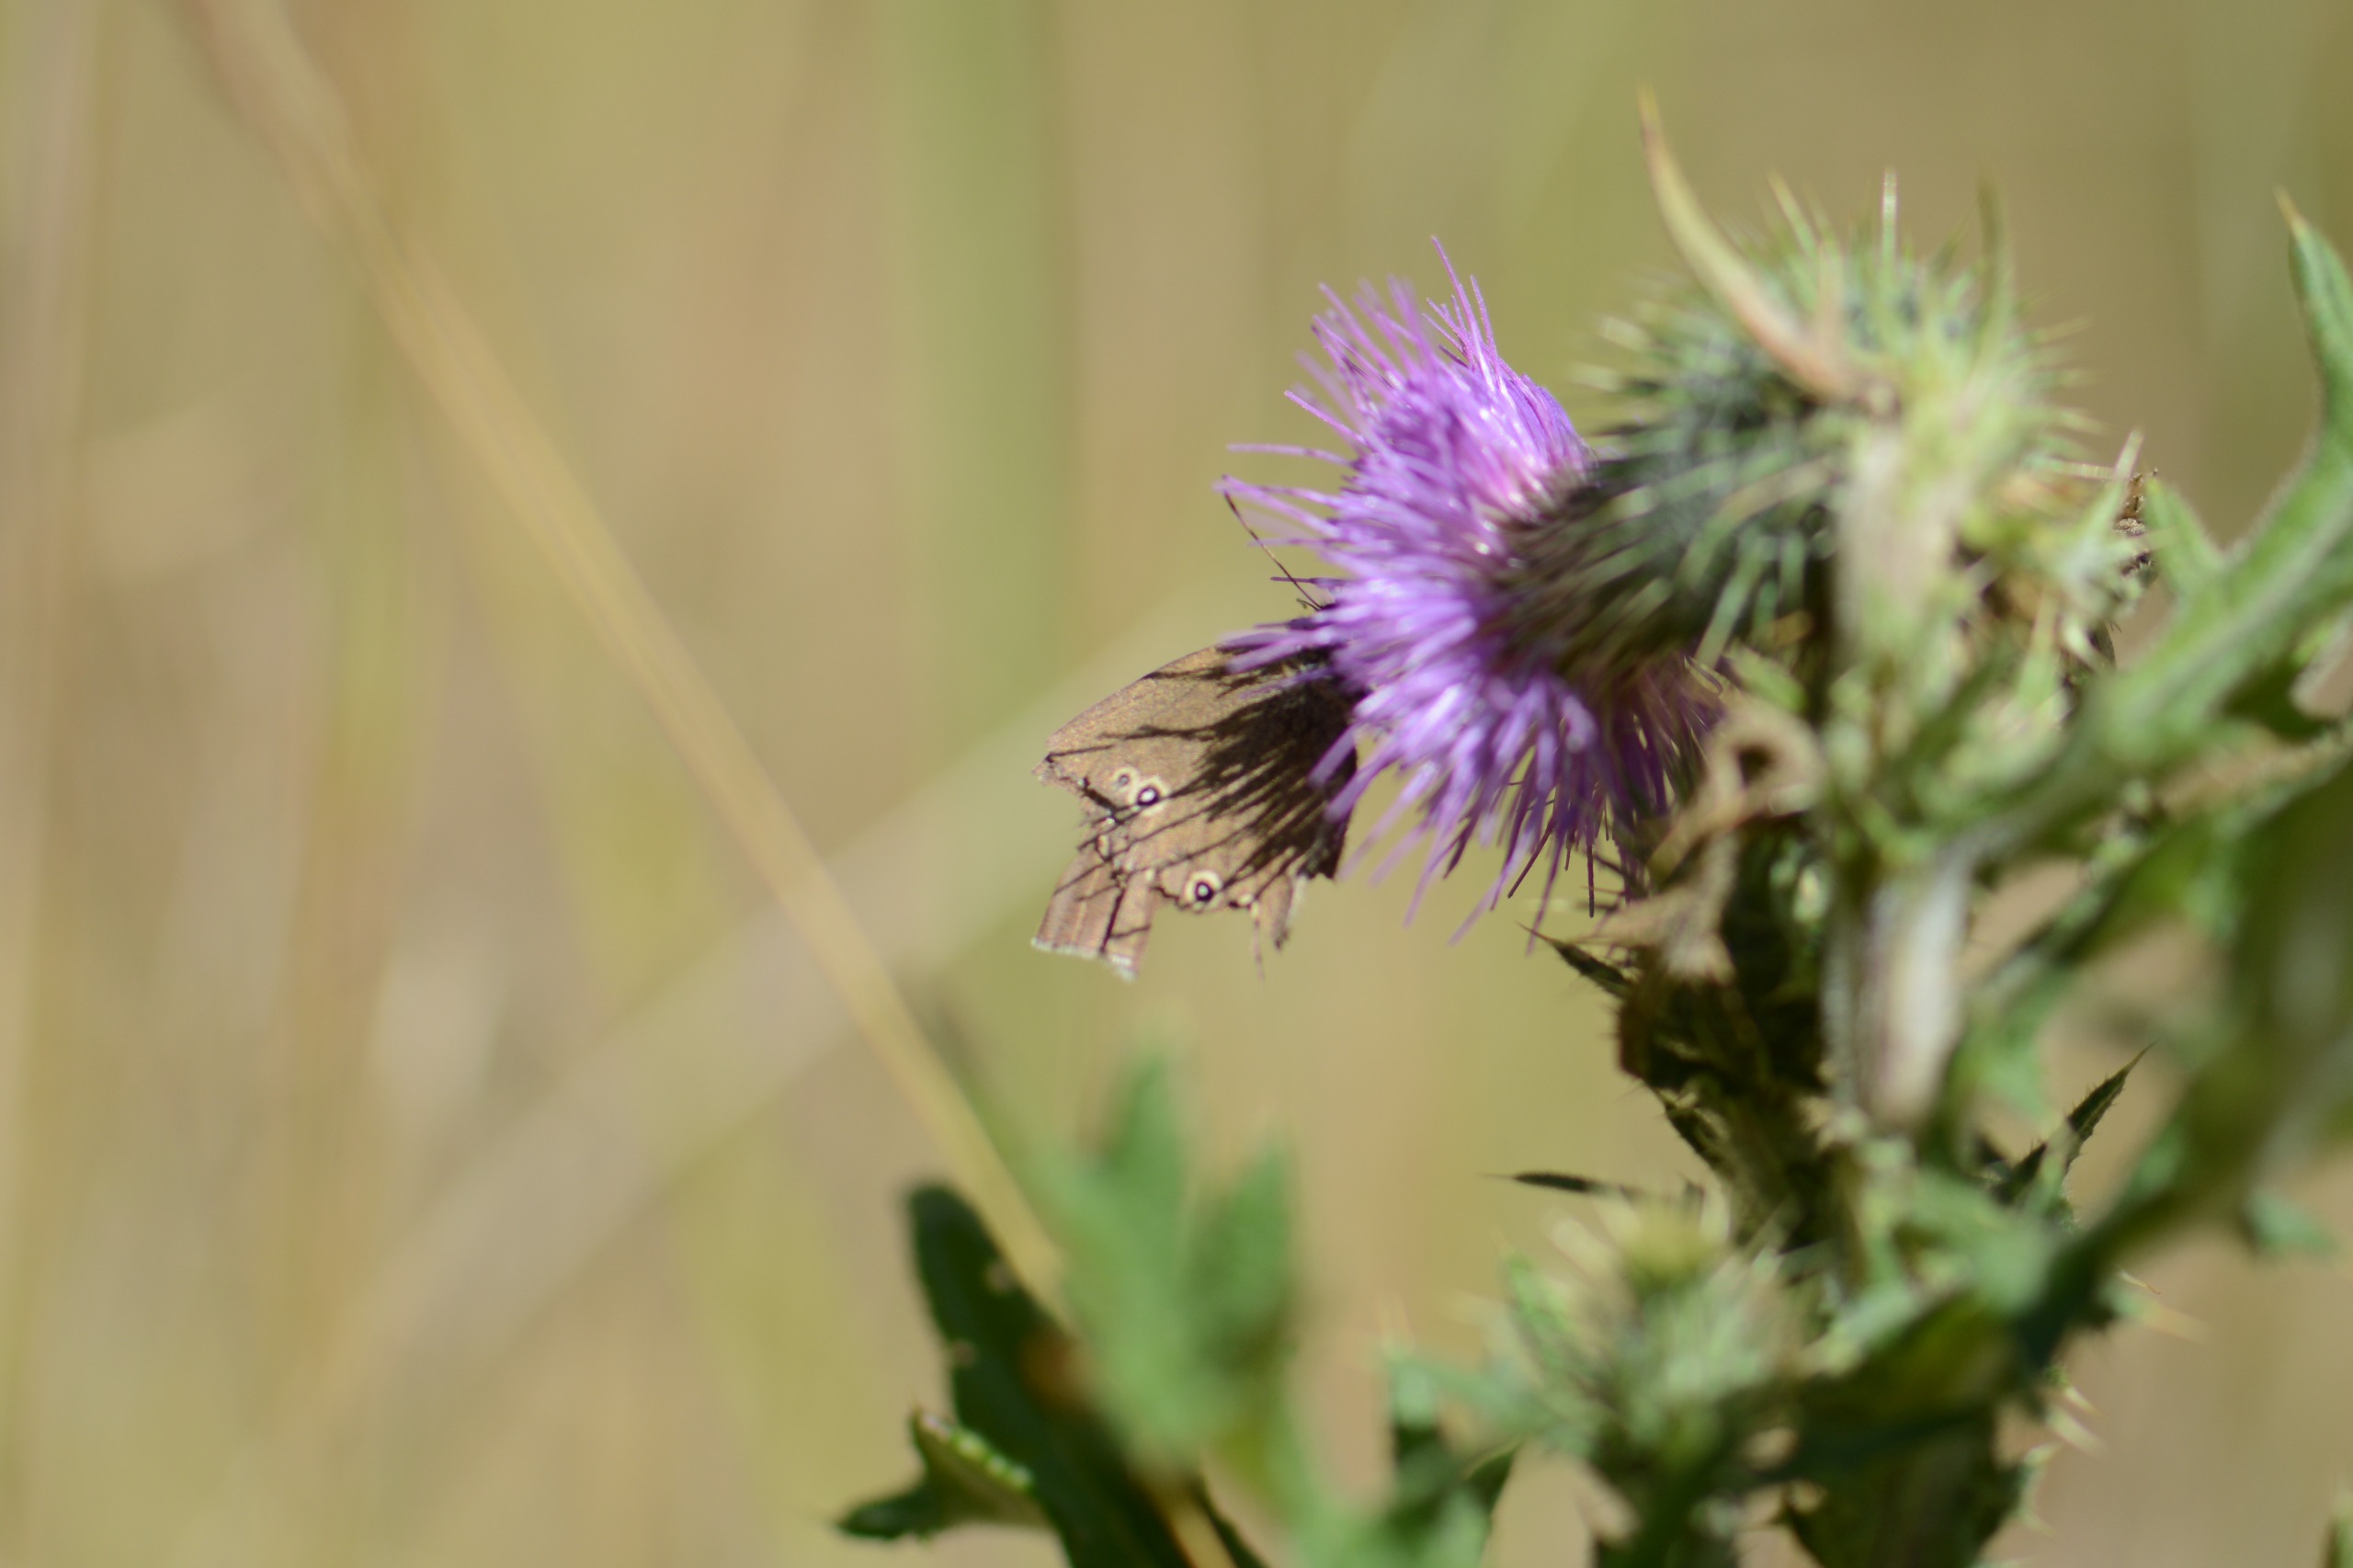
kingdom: Animalia
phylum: Arthropoda
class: Insecta
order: Lepidoptera
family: Nymphalidae
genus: Aphantopus
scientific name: Aphantopus hyperantus
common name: Engrandøje
